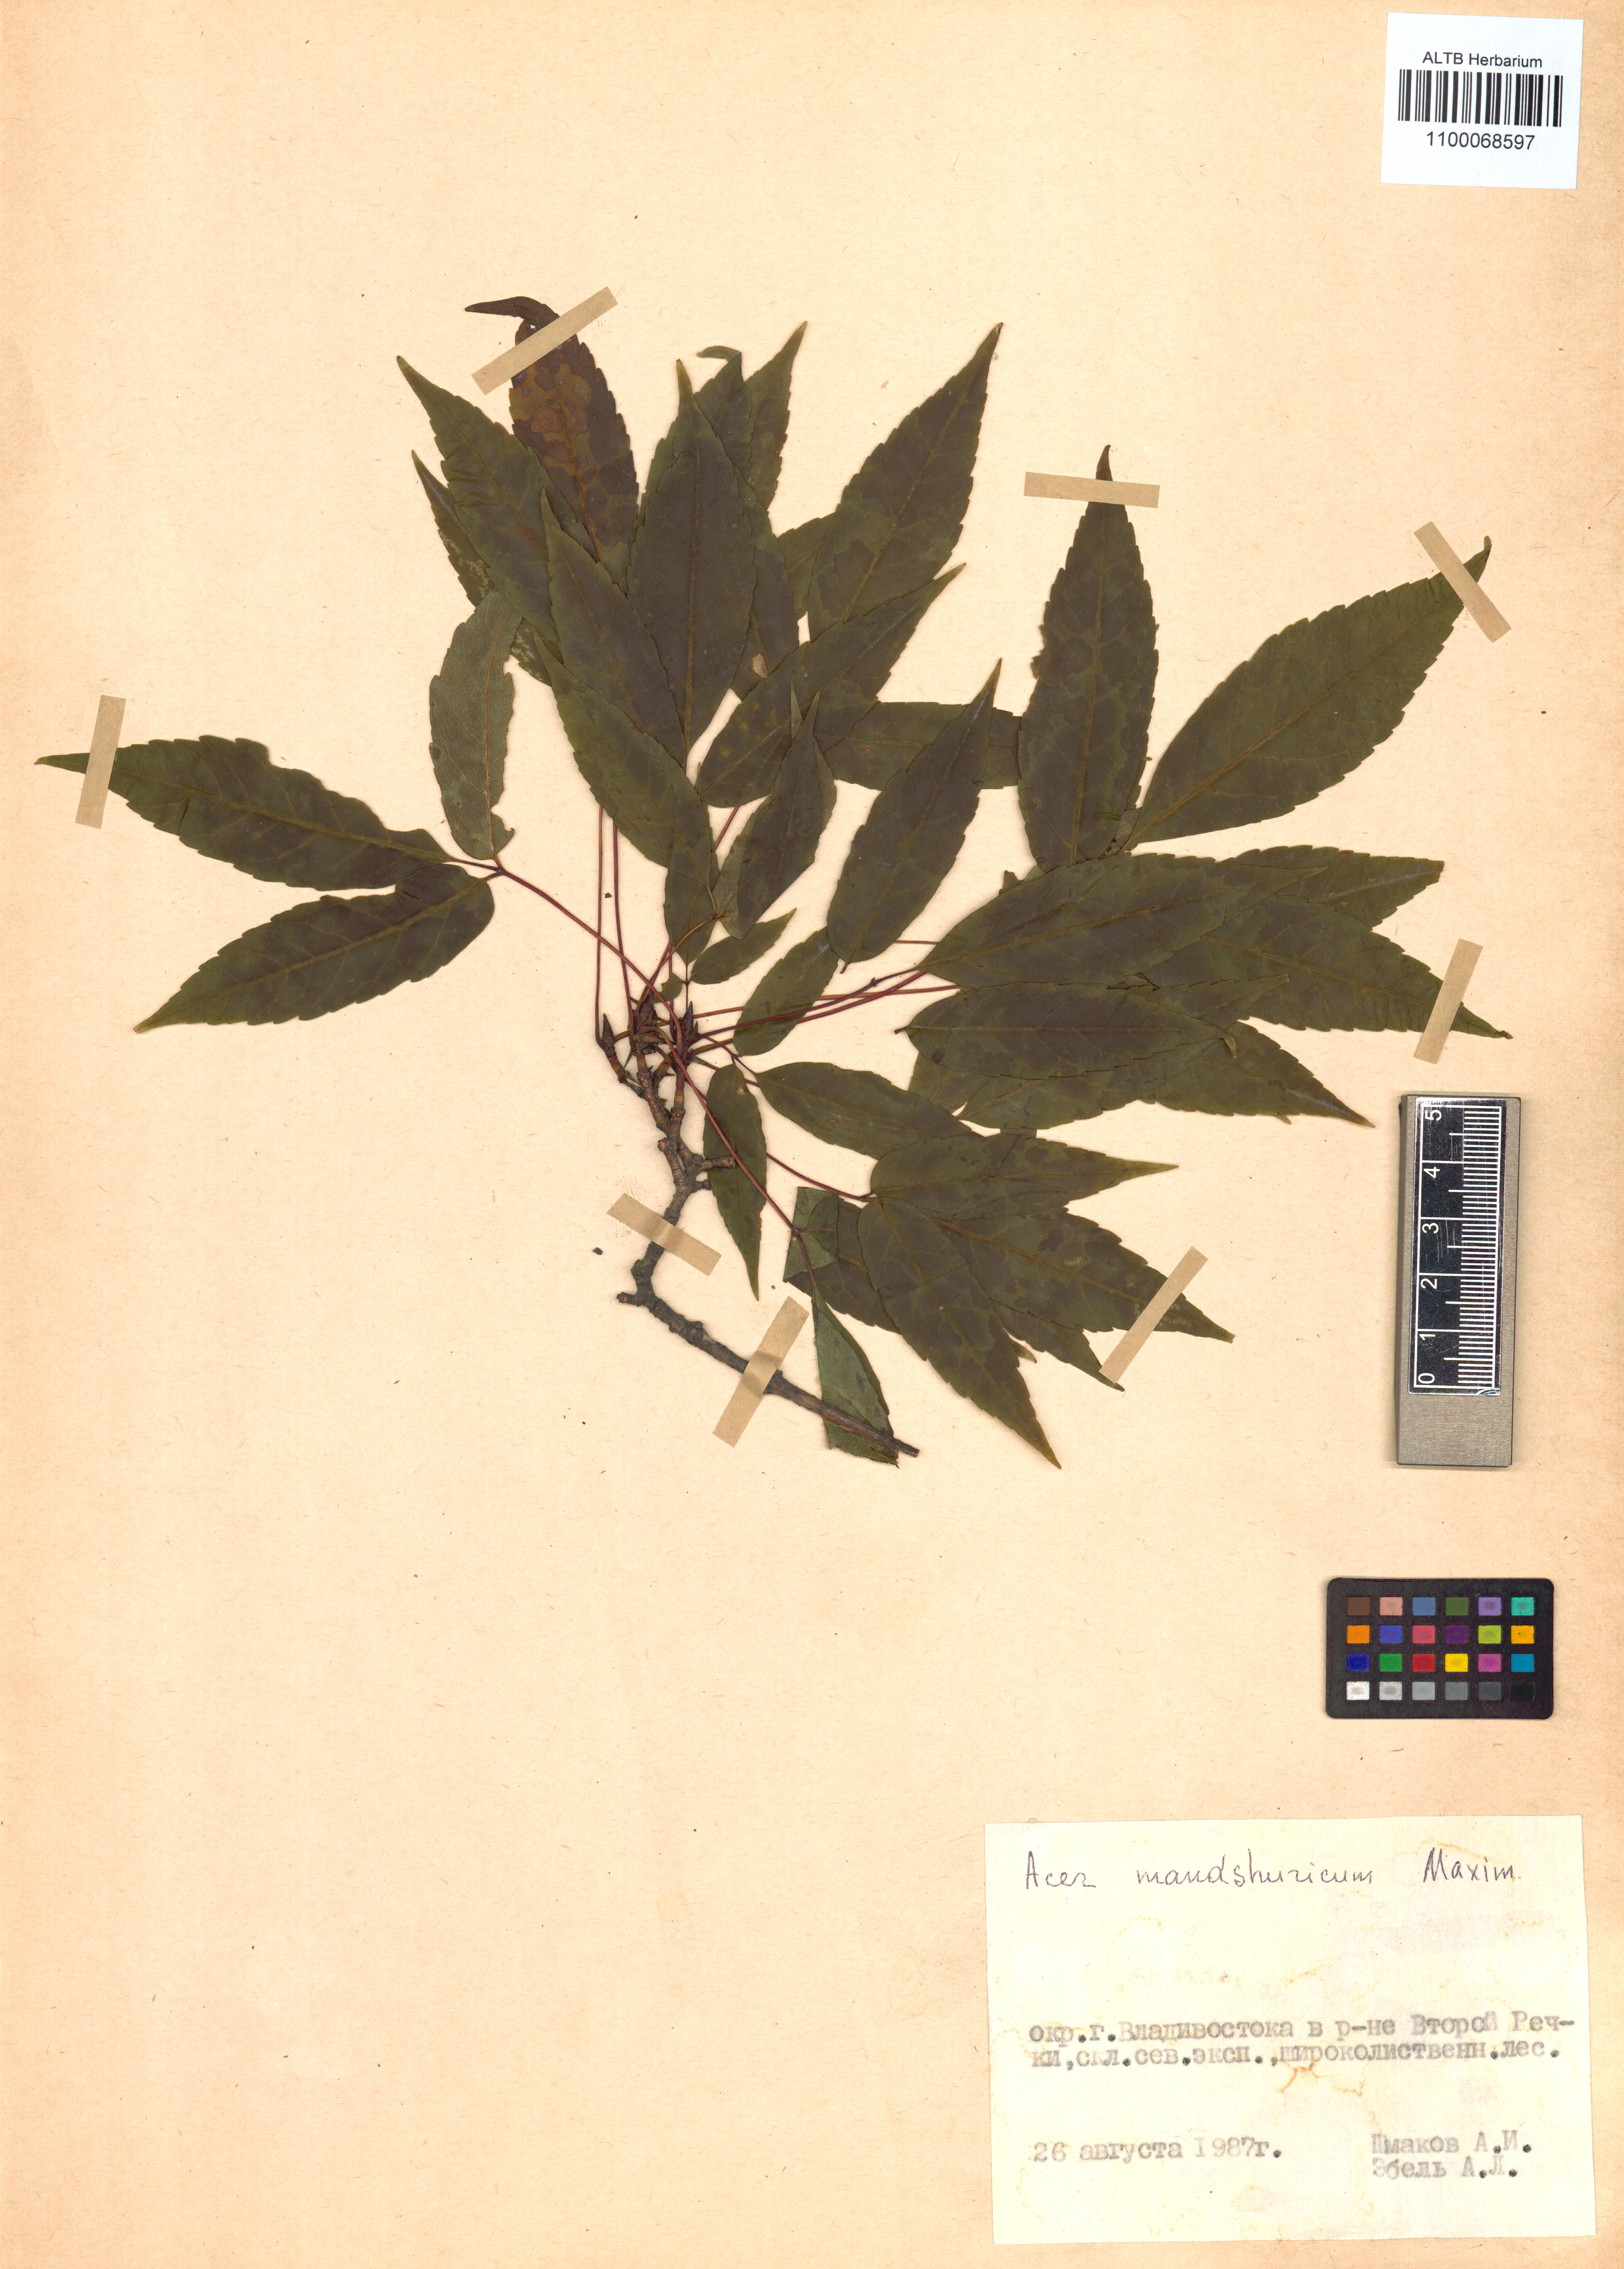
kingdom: Plantae
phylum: Tracheophyta
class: Magnoliopsida
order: Sapindales
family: Sapindaceae
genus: Acer
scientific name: Acer mandshuricum
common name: Manchurian maple
